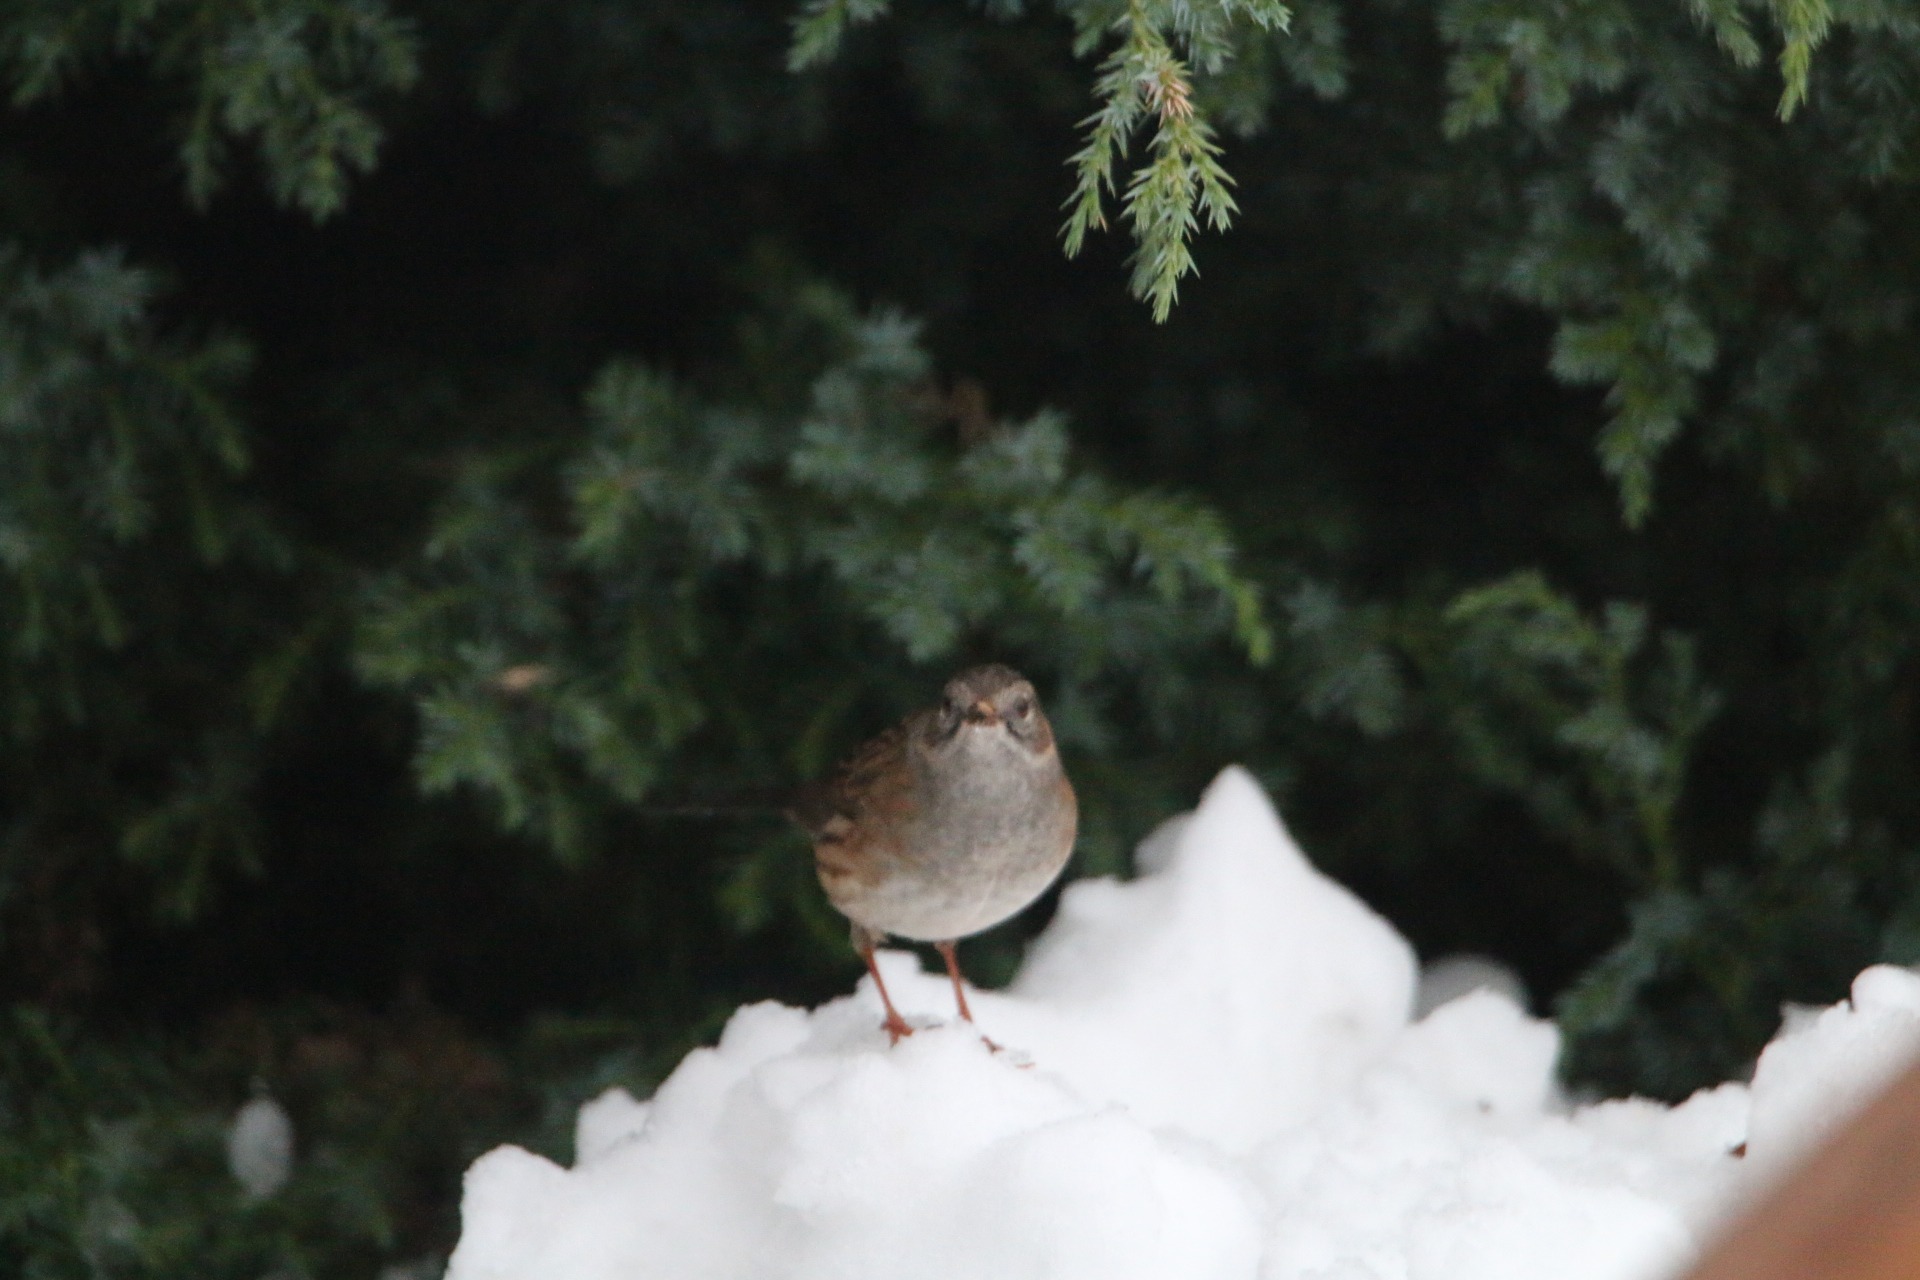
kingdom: Animalia
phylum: Chordata
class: Aves
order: Passeriformes
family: Prunellidae
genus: Prunella
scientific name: Prunella modularis
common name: Jernspurv
